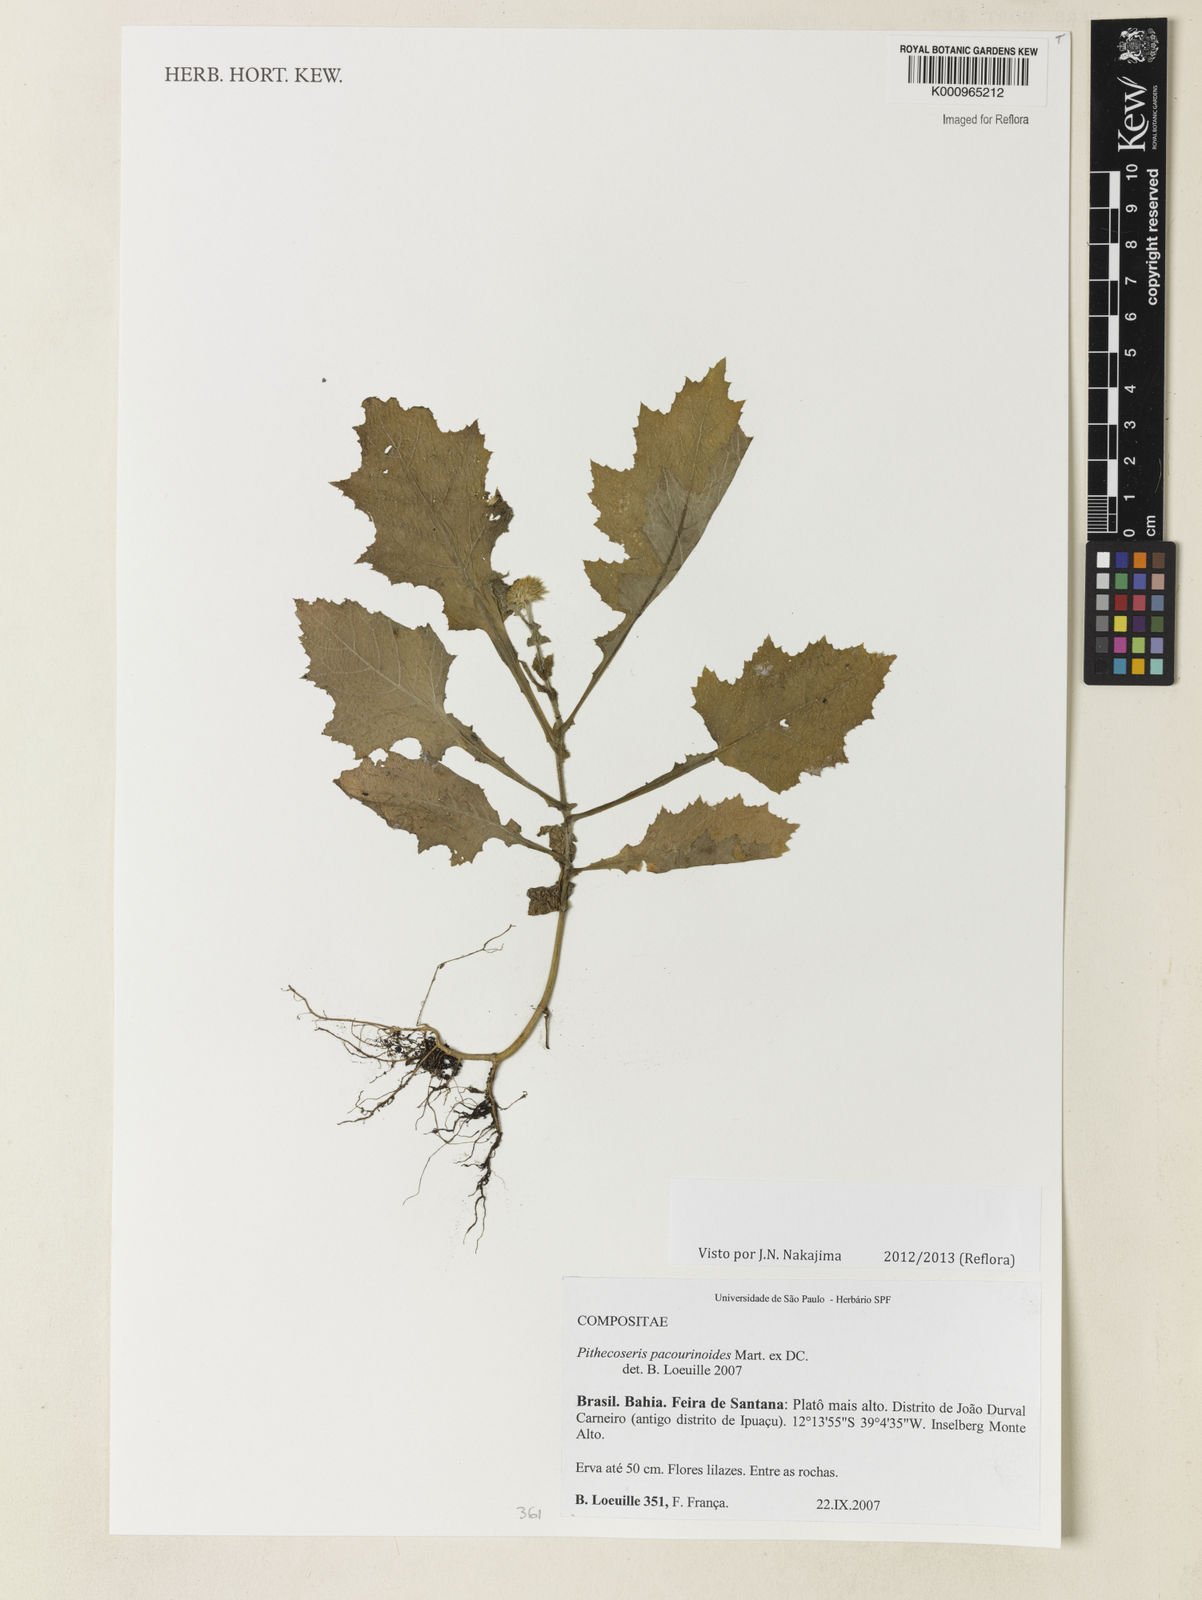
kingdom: Plantae
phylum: Tracheophyta
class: Magnoliopsida
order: Asterales
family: Asteraceae
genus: Chresta
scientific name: Chresta pacourinoides
